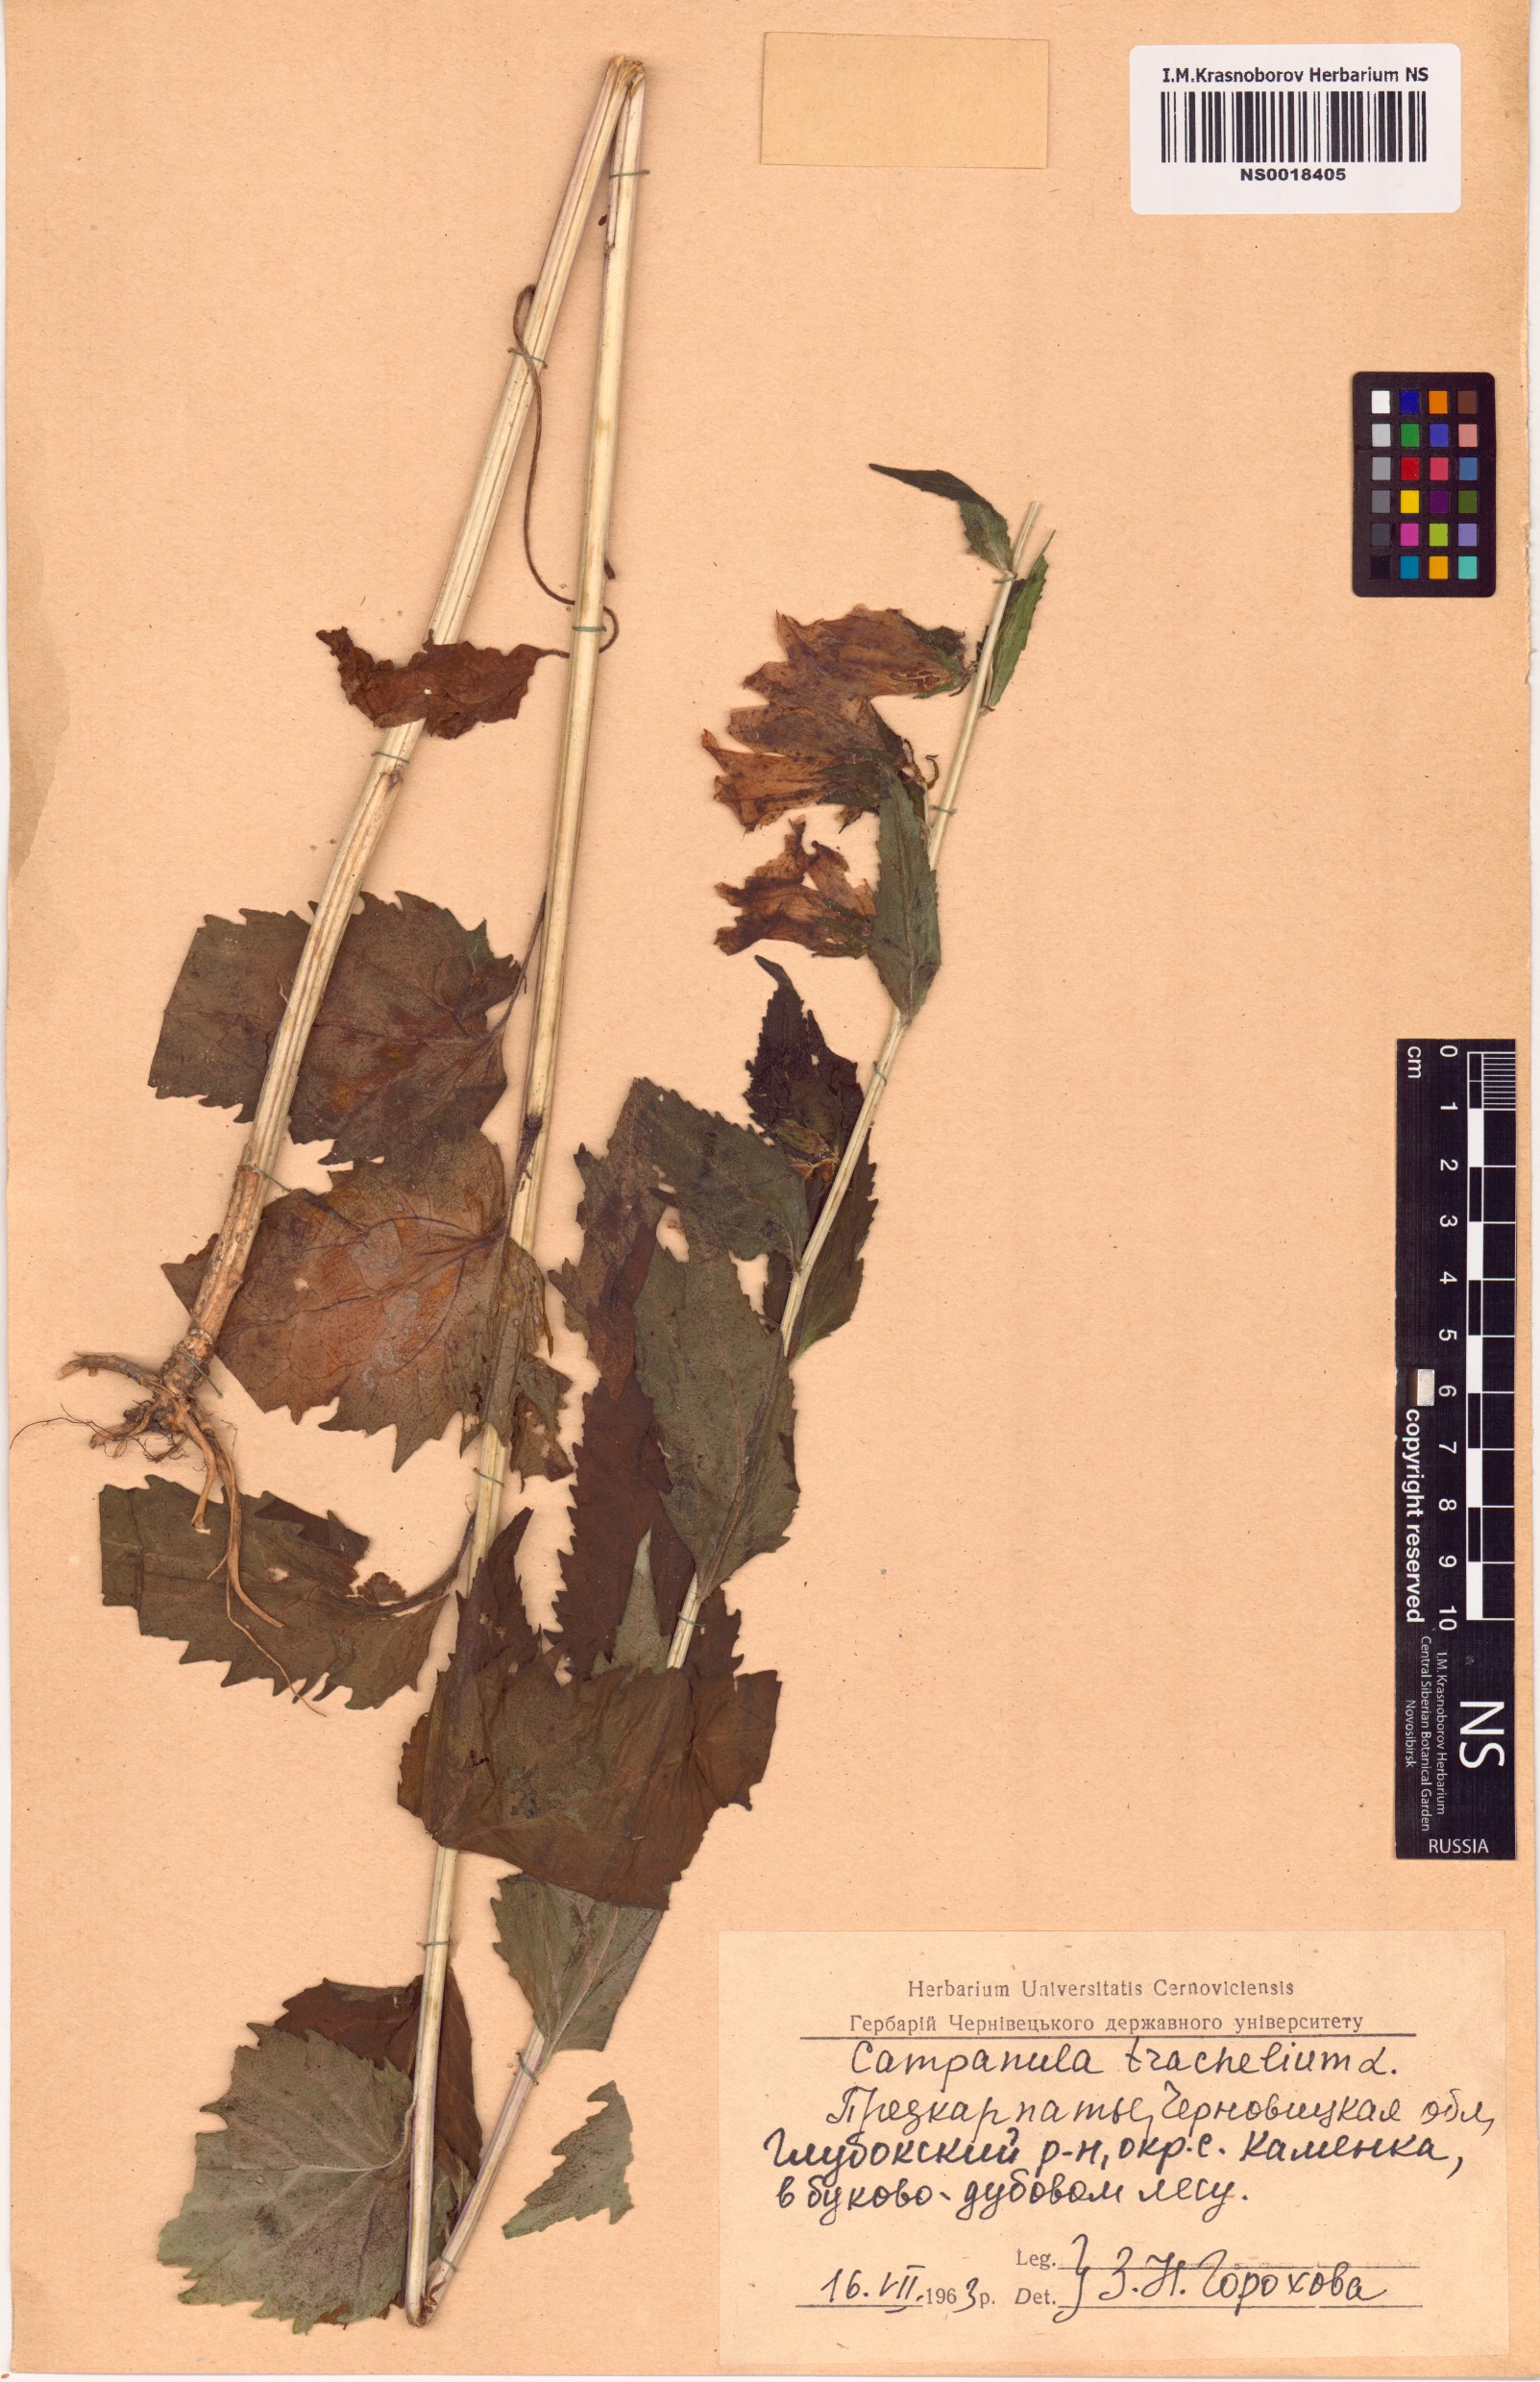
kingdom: Plantae
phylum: Tracheophyta
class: Magnoliopsida
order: Asterales
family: Campanulaceae
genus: Campanula
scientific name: Campanula trachelium
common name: Nettle-leaved bellflower
